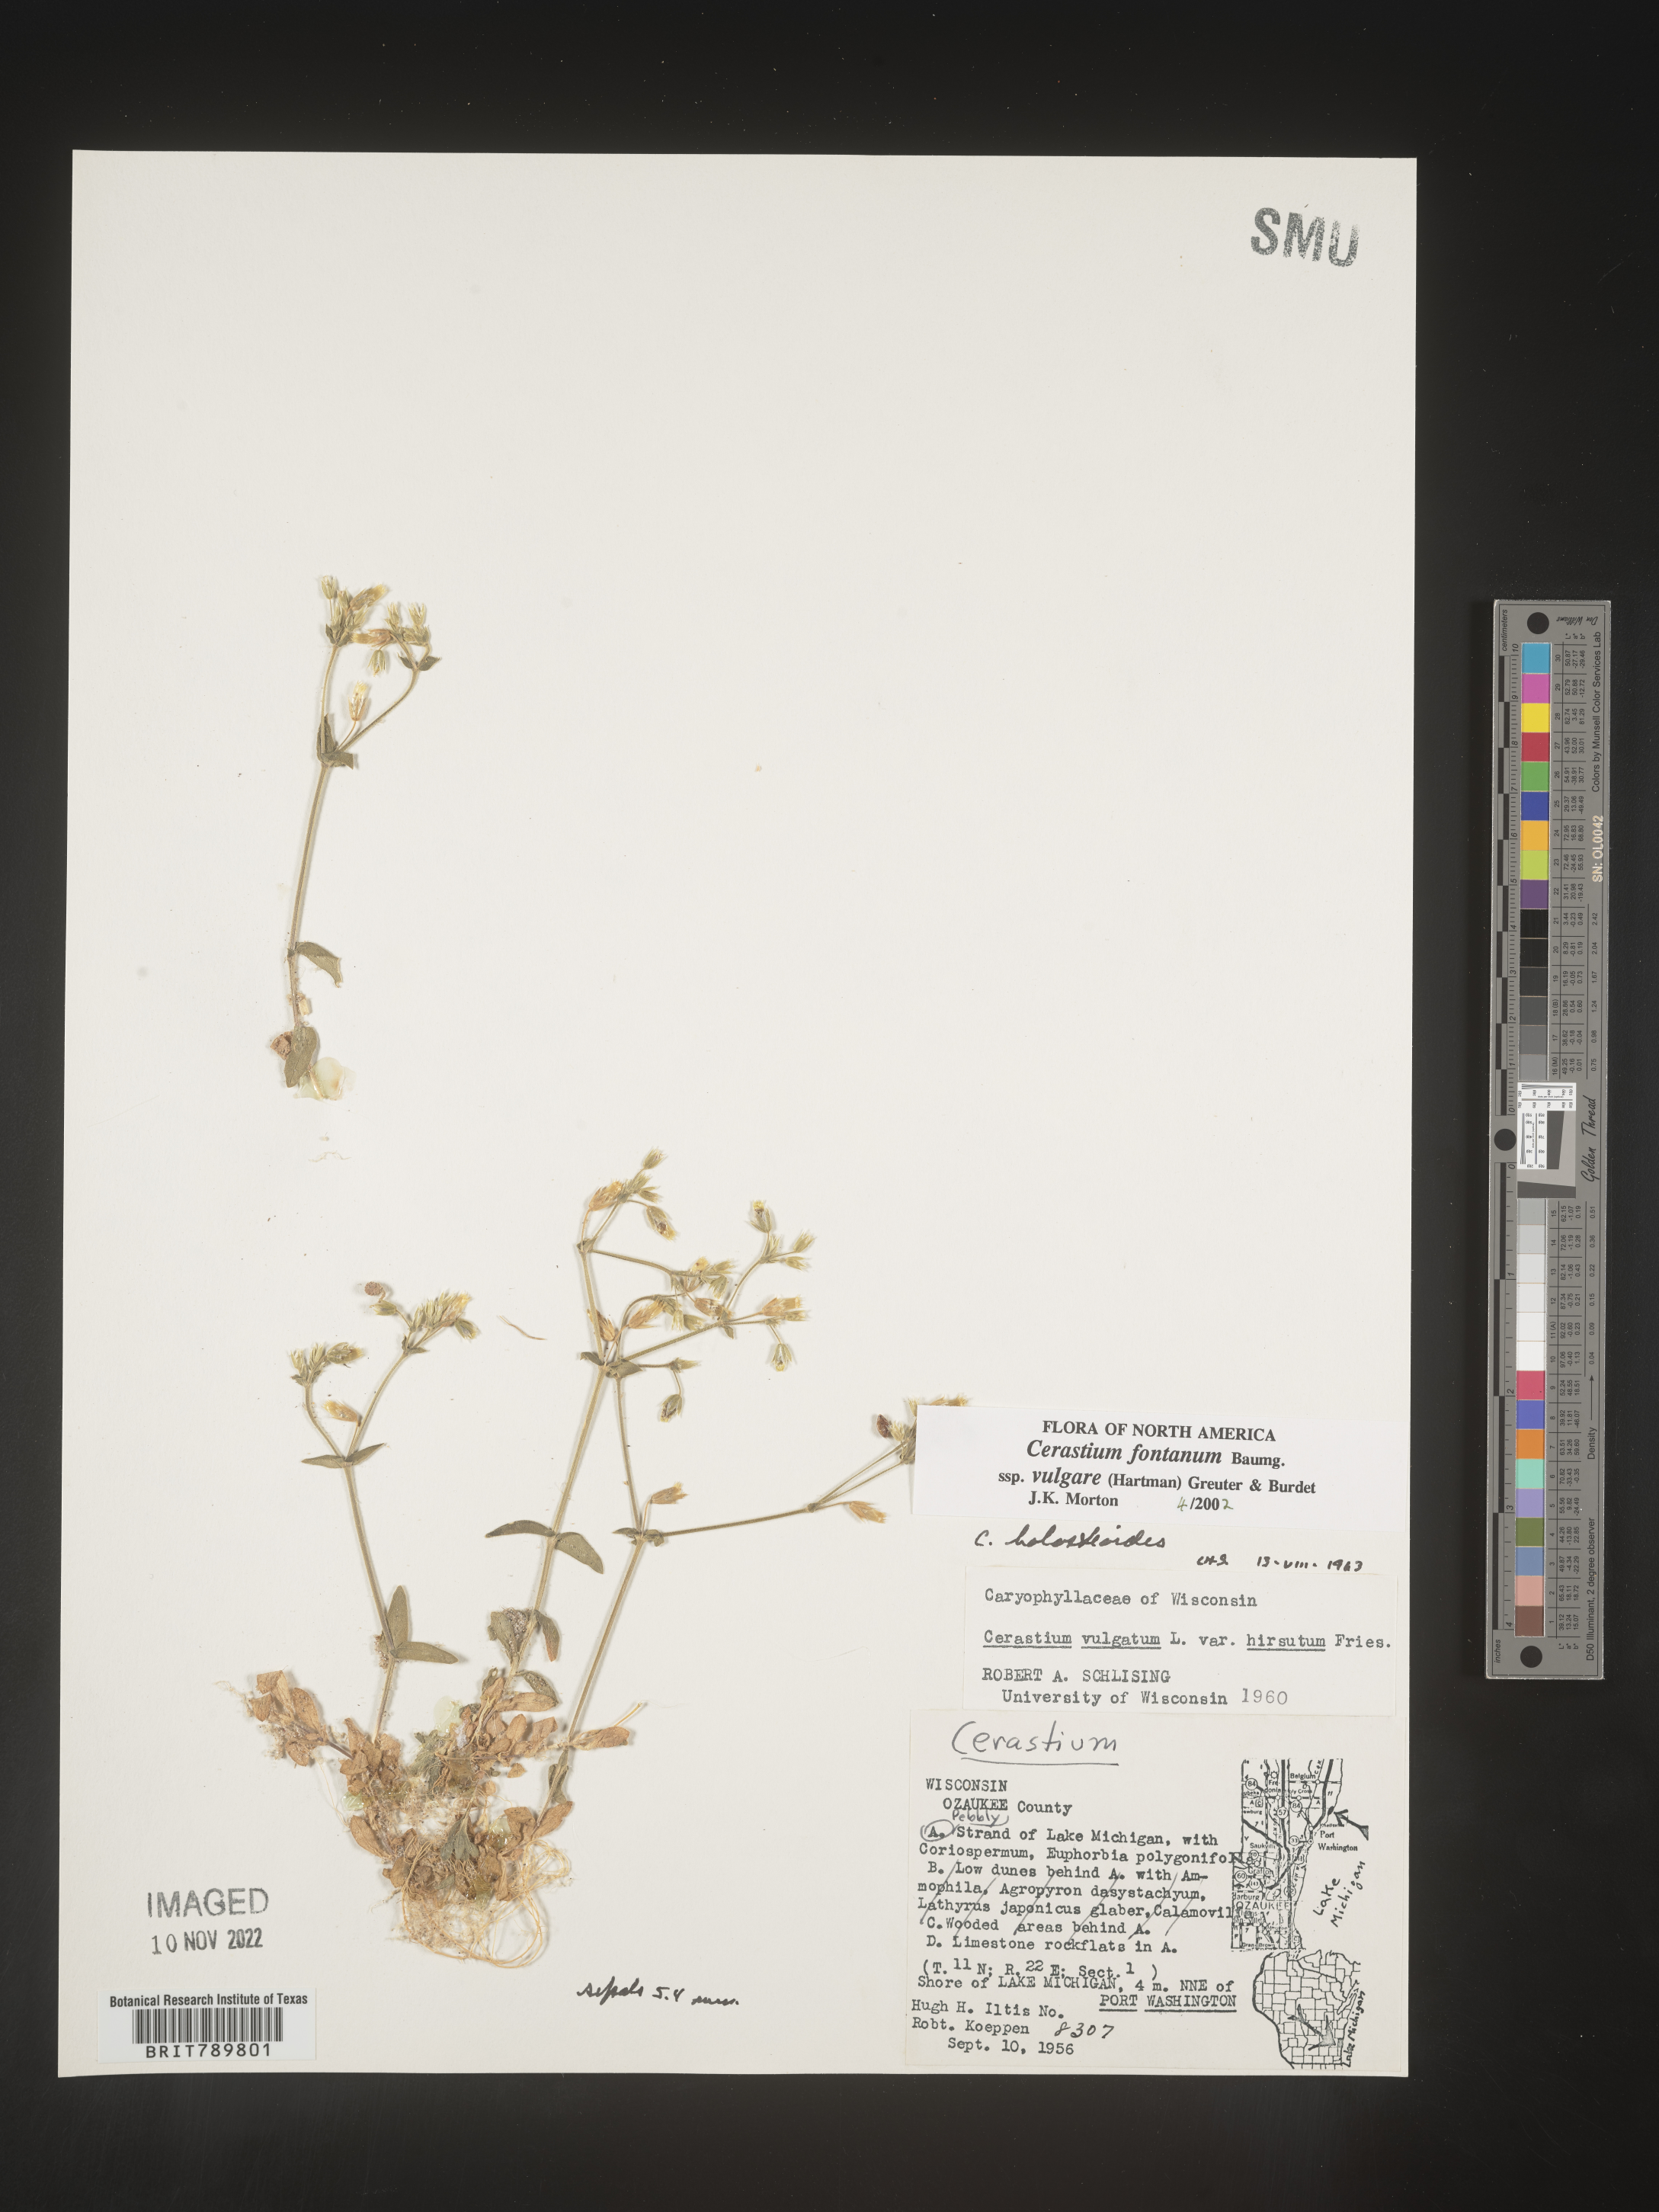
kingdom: Plantae
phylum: Tracheophyta
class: Magnoliopsida
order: Caryophyllales
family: Caryophyllaceae
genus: Cerastium
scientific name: Cerastium fontanum
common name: Common mouse-ear
